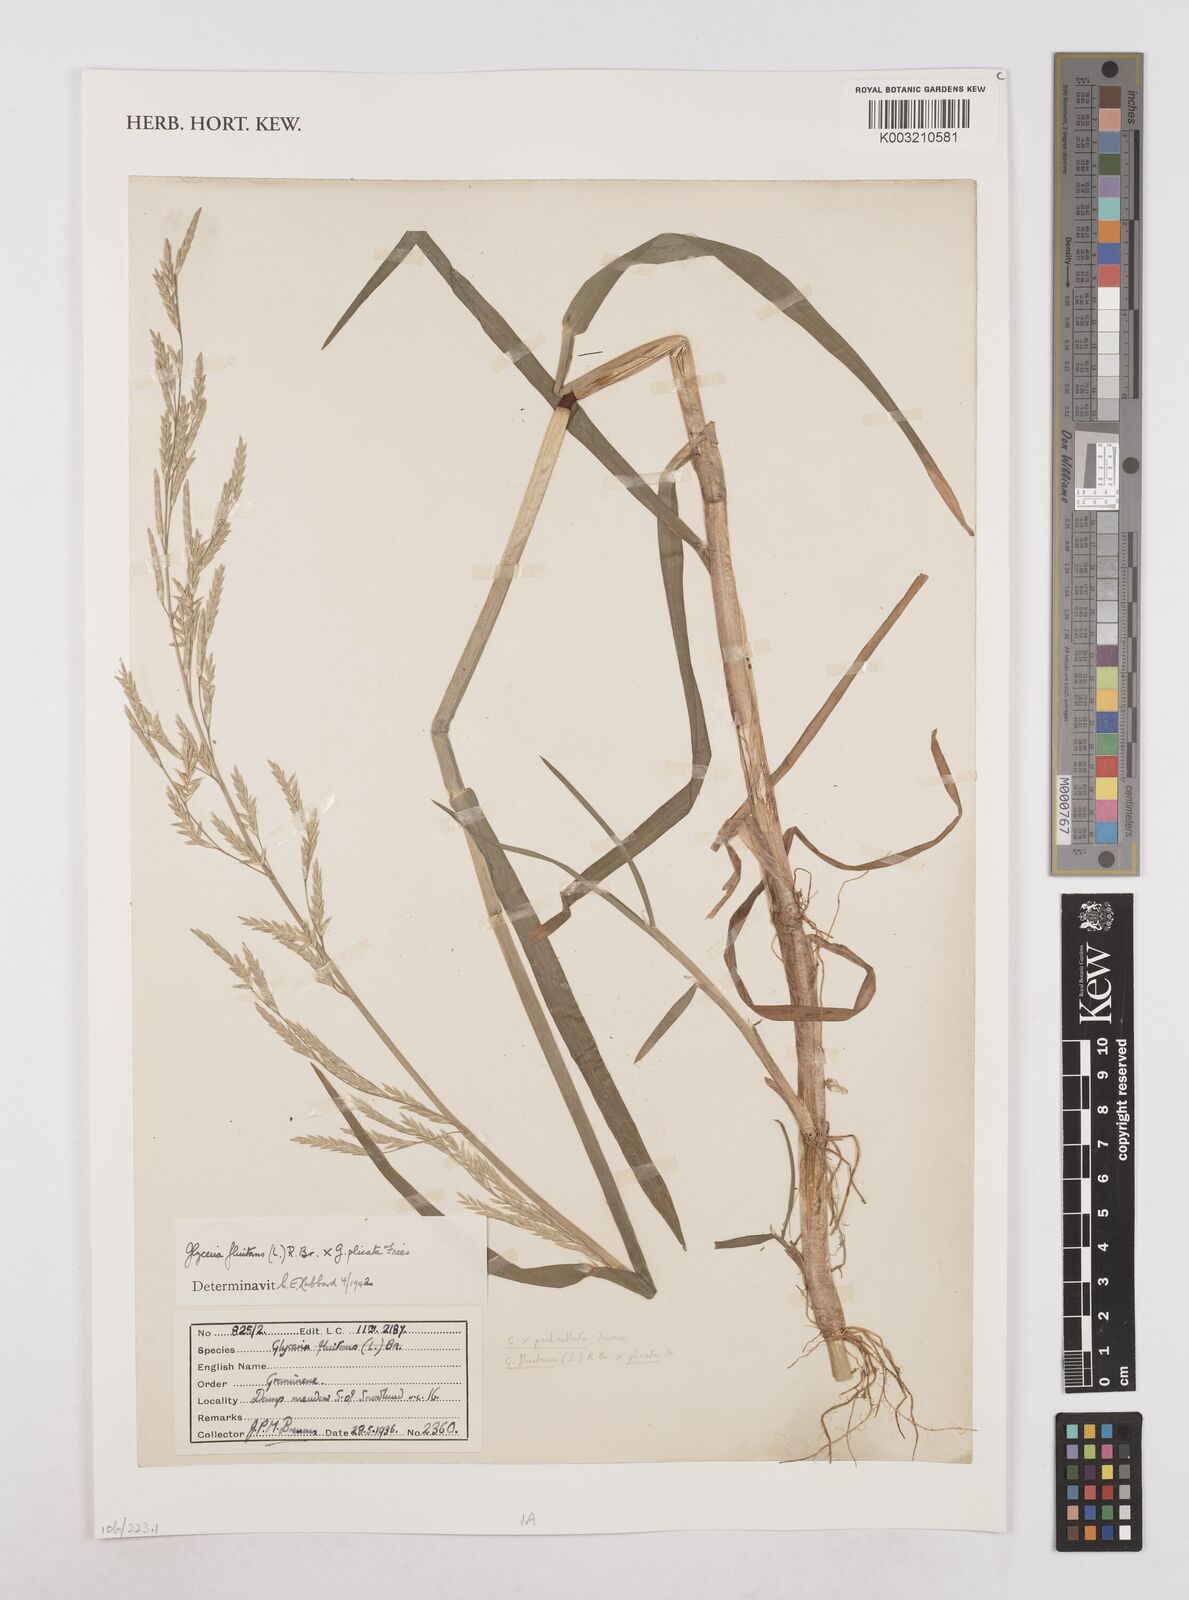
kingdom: Plantae
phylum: Tracheophyta
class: Liliopsida
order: Poales
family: Poaceae
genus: Glyceria
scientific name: Glyceria fluitans
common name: Floating sweet-grass
